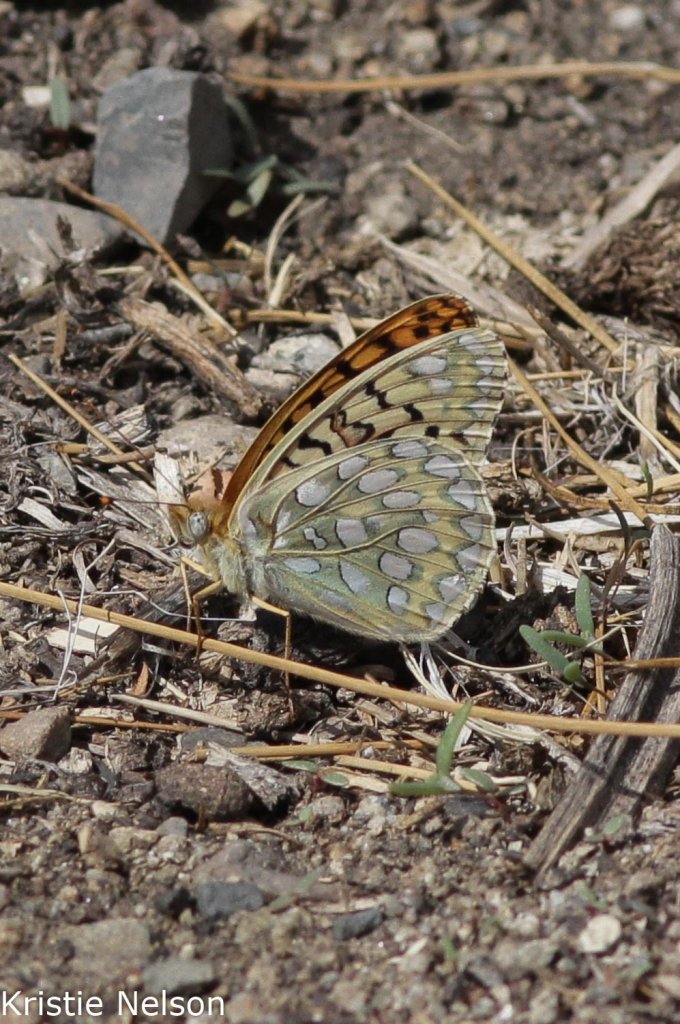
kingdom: Animalia
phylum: Arthropoda
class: Insecta
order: Lepidoptera
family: Nymphalidae
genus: Speyeria
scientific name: Speyeria callippe
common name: Callippe Fritillary
